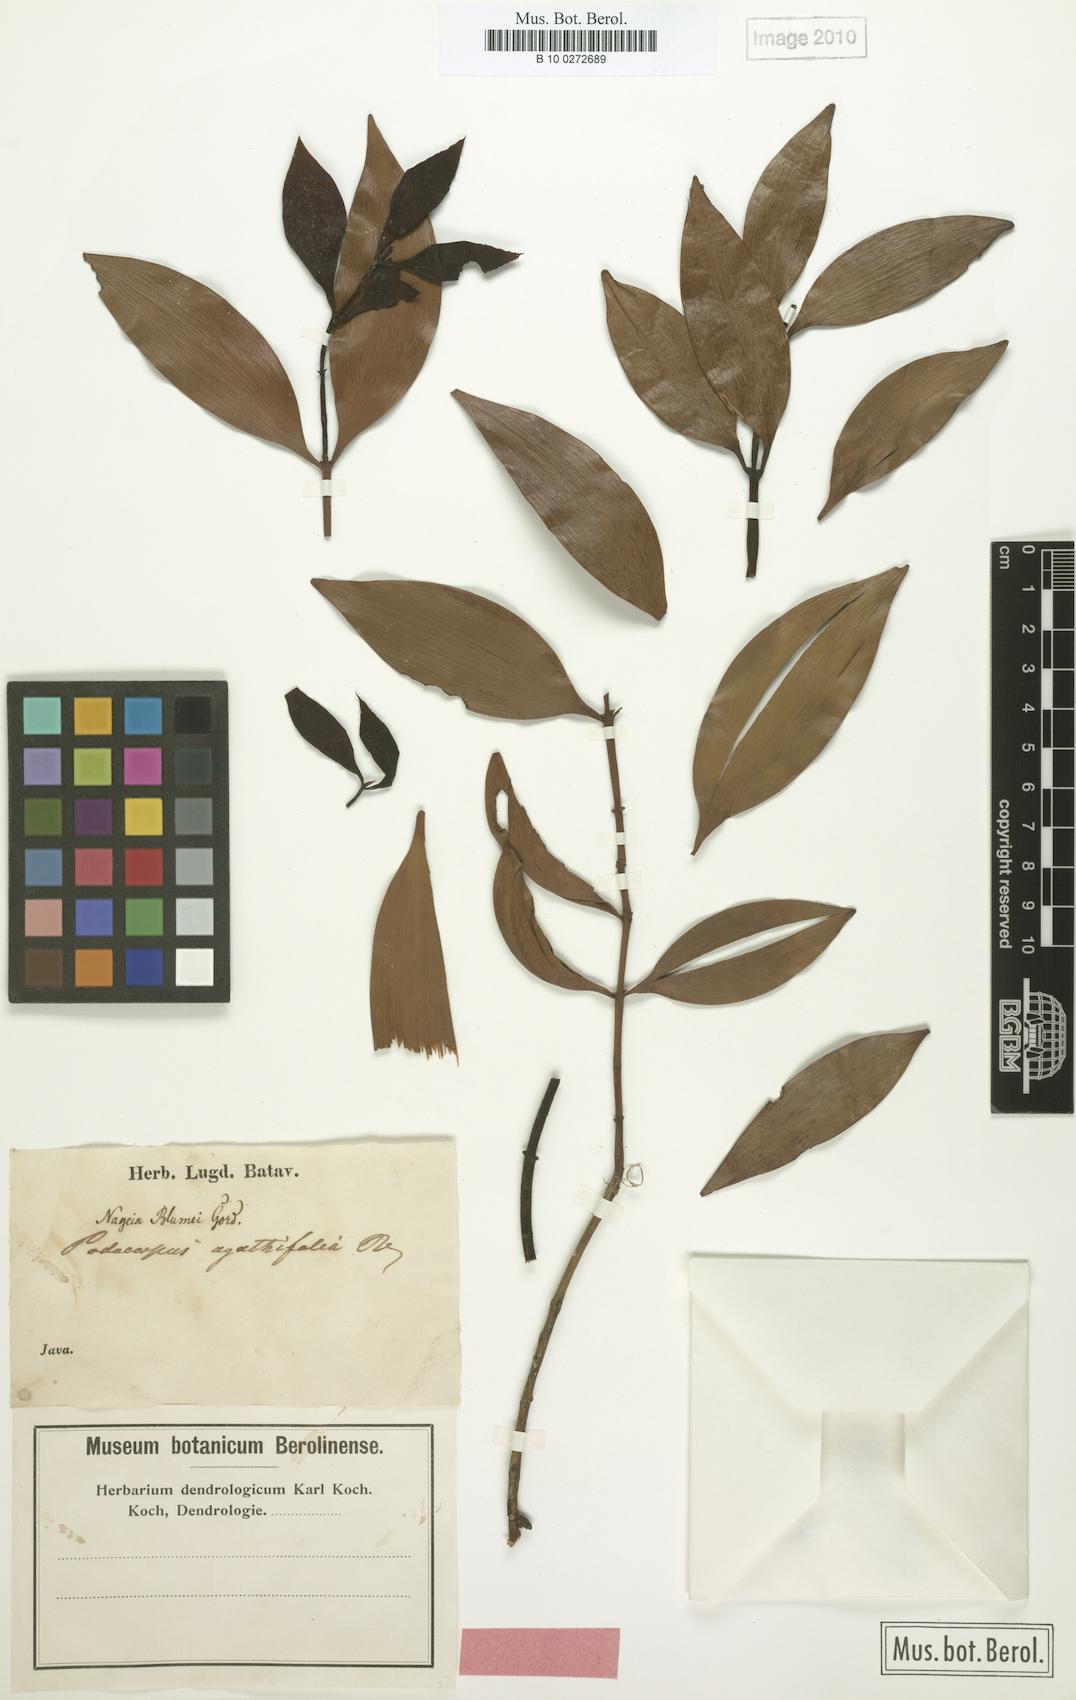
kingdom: Plantae
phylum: Tracheophyta
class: Pinopsida
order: Pinales
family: Podocarpaceae
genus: Nageia
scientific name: Nageia wallichiana
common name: Brown's-pine
